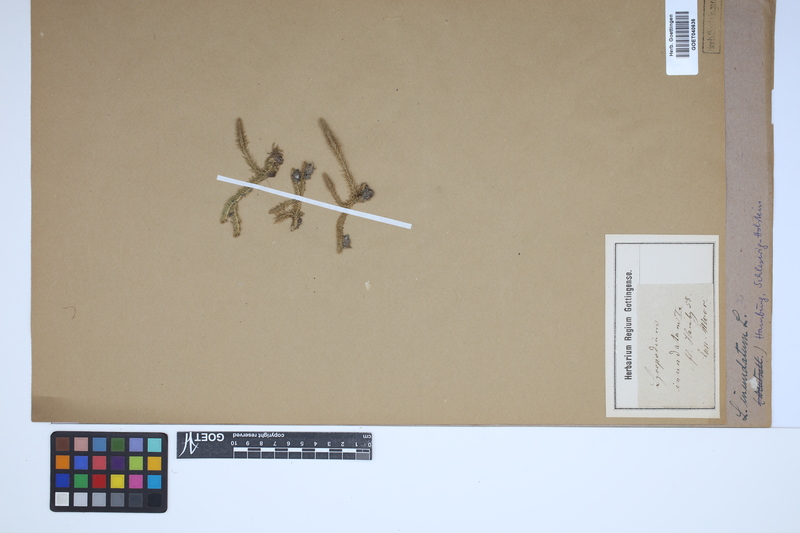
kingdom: Plantae
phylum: Tracheophyta
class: Lycopodiopsida
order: Lycopodiales
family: Lycopodiaceae
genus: Lycopodiella
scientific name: Lycopodiella inundata
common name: Marsh clubmoss
